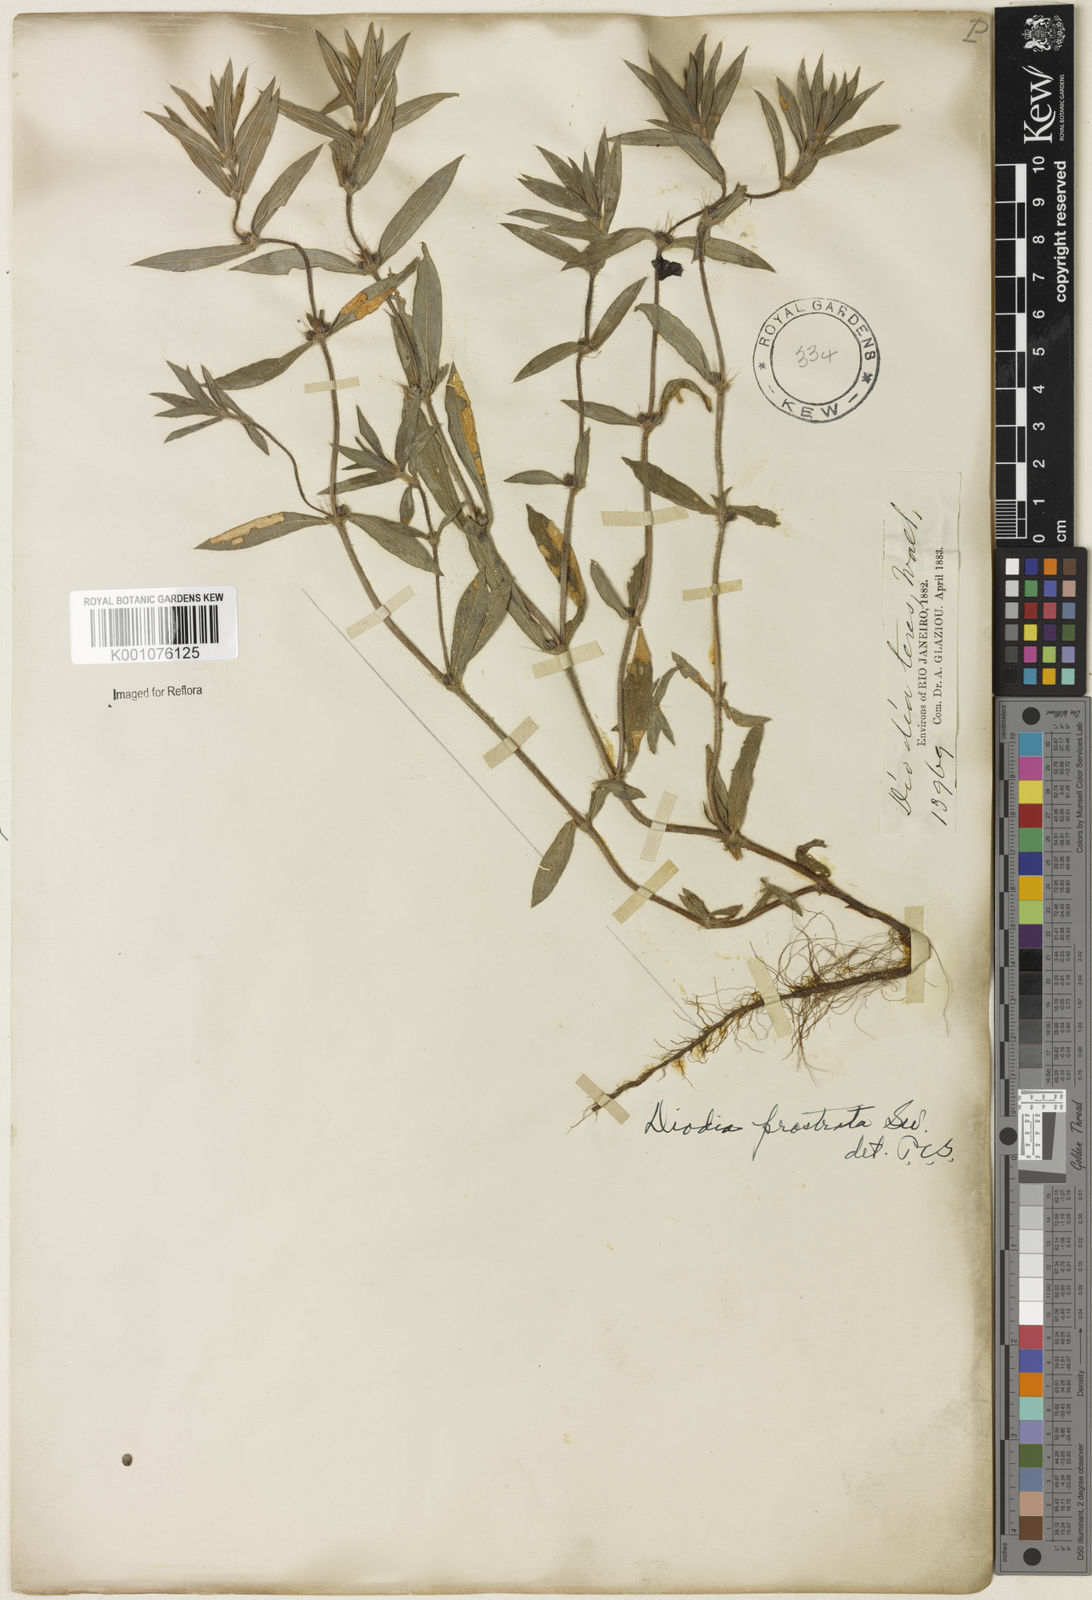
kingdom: Plantae
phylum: Tracheophyta
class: Magnoliopsida
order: Gentianales
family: Rubiaceae
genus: Hexasepalum
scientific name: Hexasepalum teres
